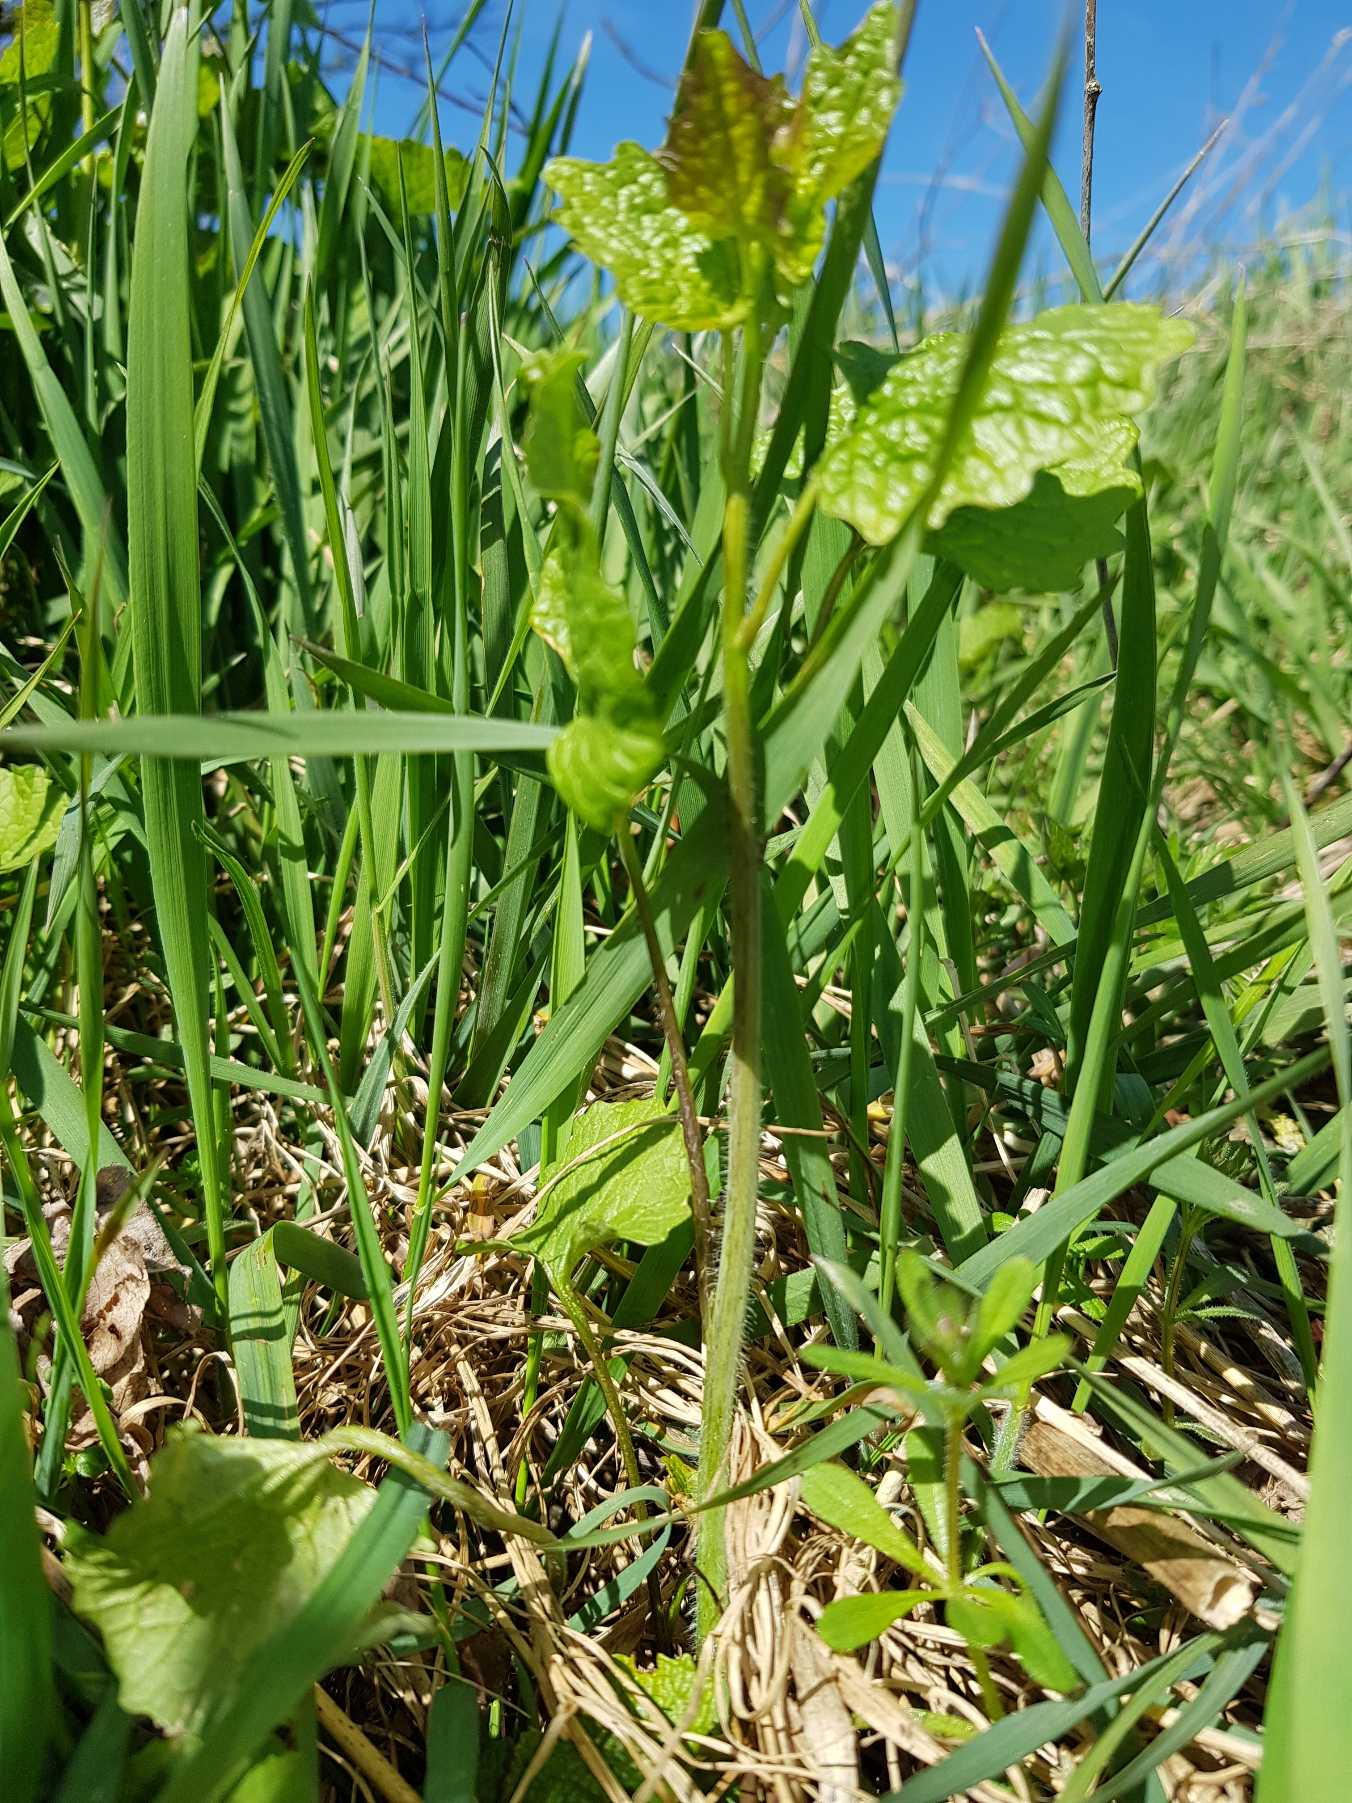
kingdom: Plantae
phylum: Tracheophyta
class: Magnoliopsida
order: Brassicales
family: Brassicaceae
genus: Alliaria
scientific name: Alliaria petiolata
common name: Løgkarse
